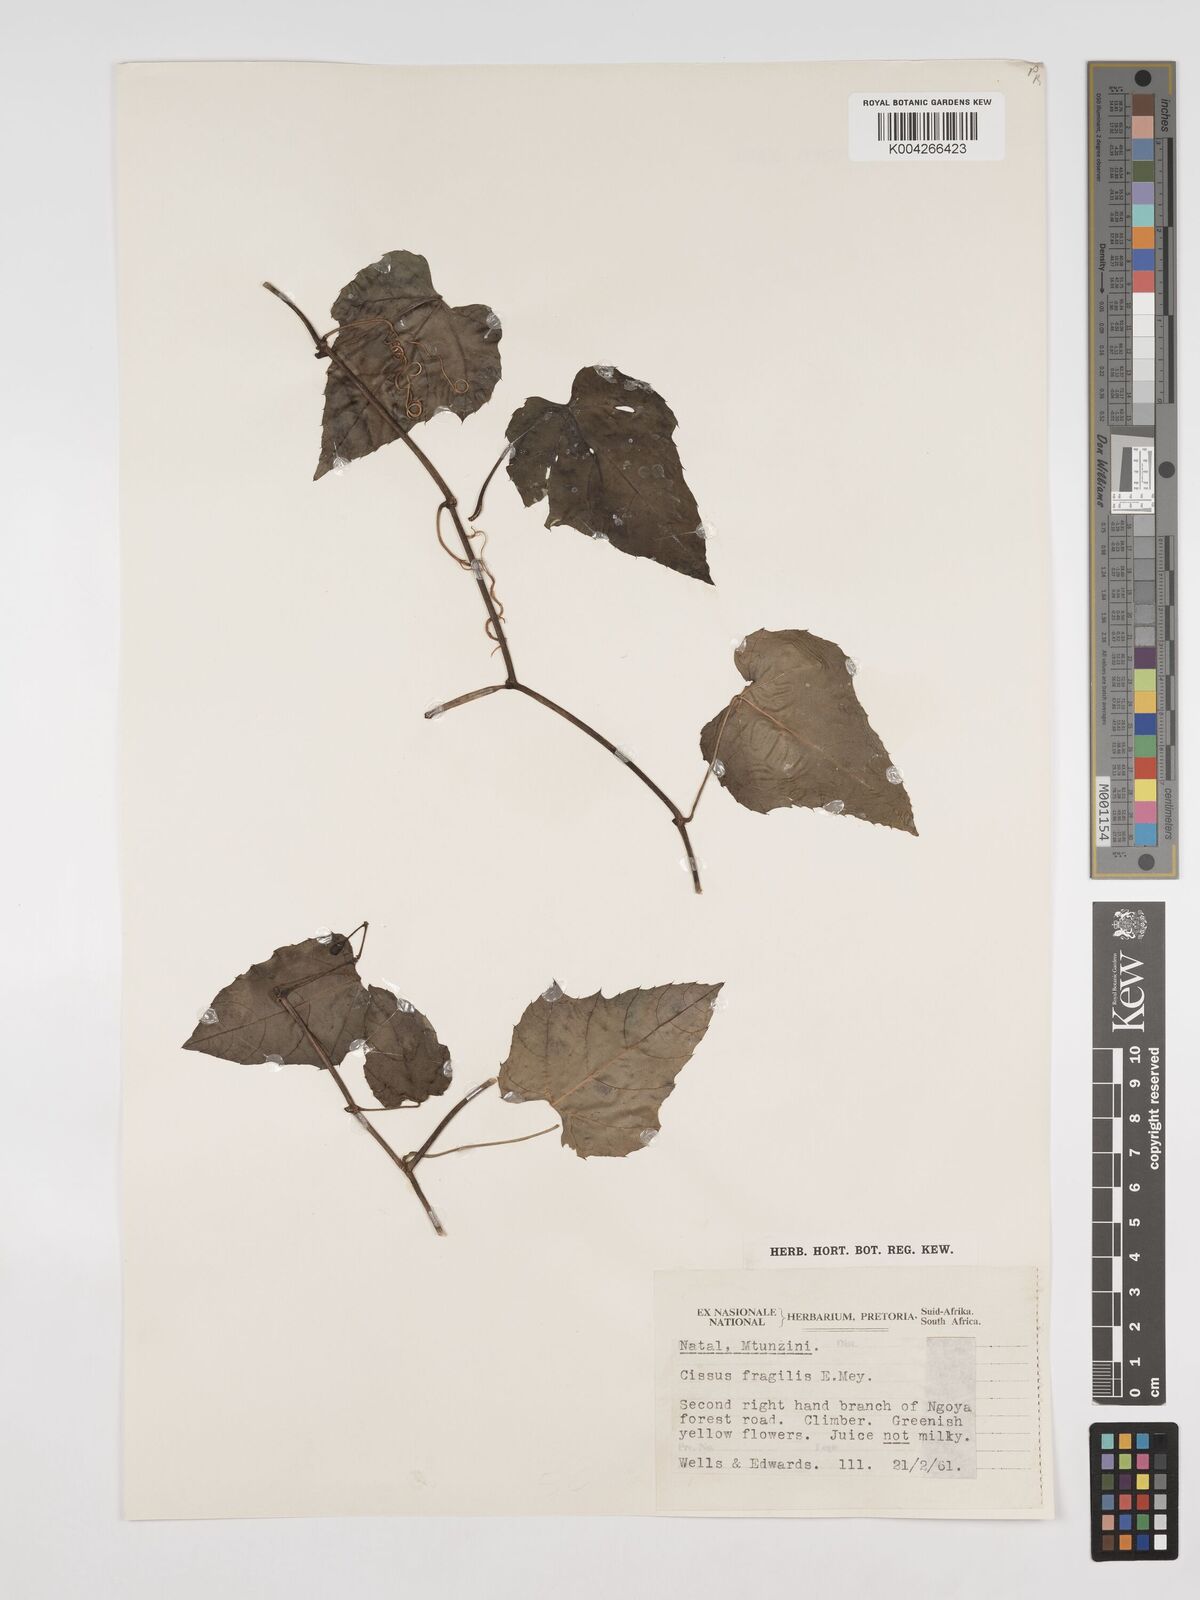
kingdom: Plantae
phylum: Tracheophyta
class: Magnoliopsida
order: Vitales
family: Vitaceae
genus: Cissus
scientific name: Cissus fragilis
